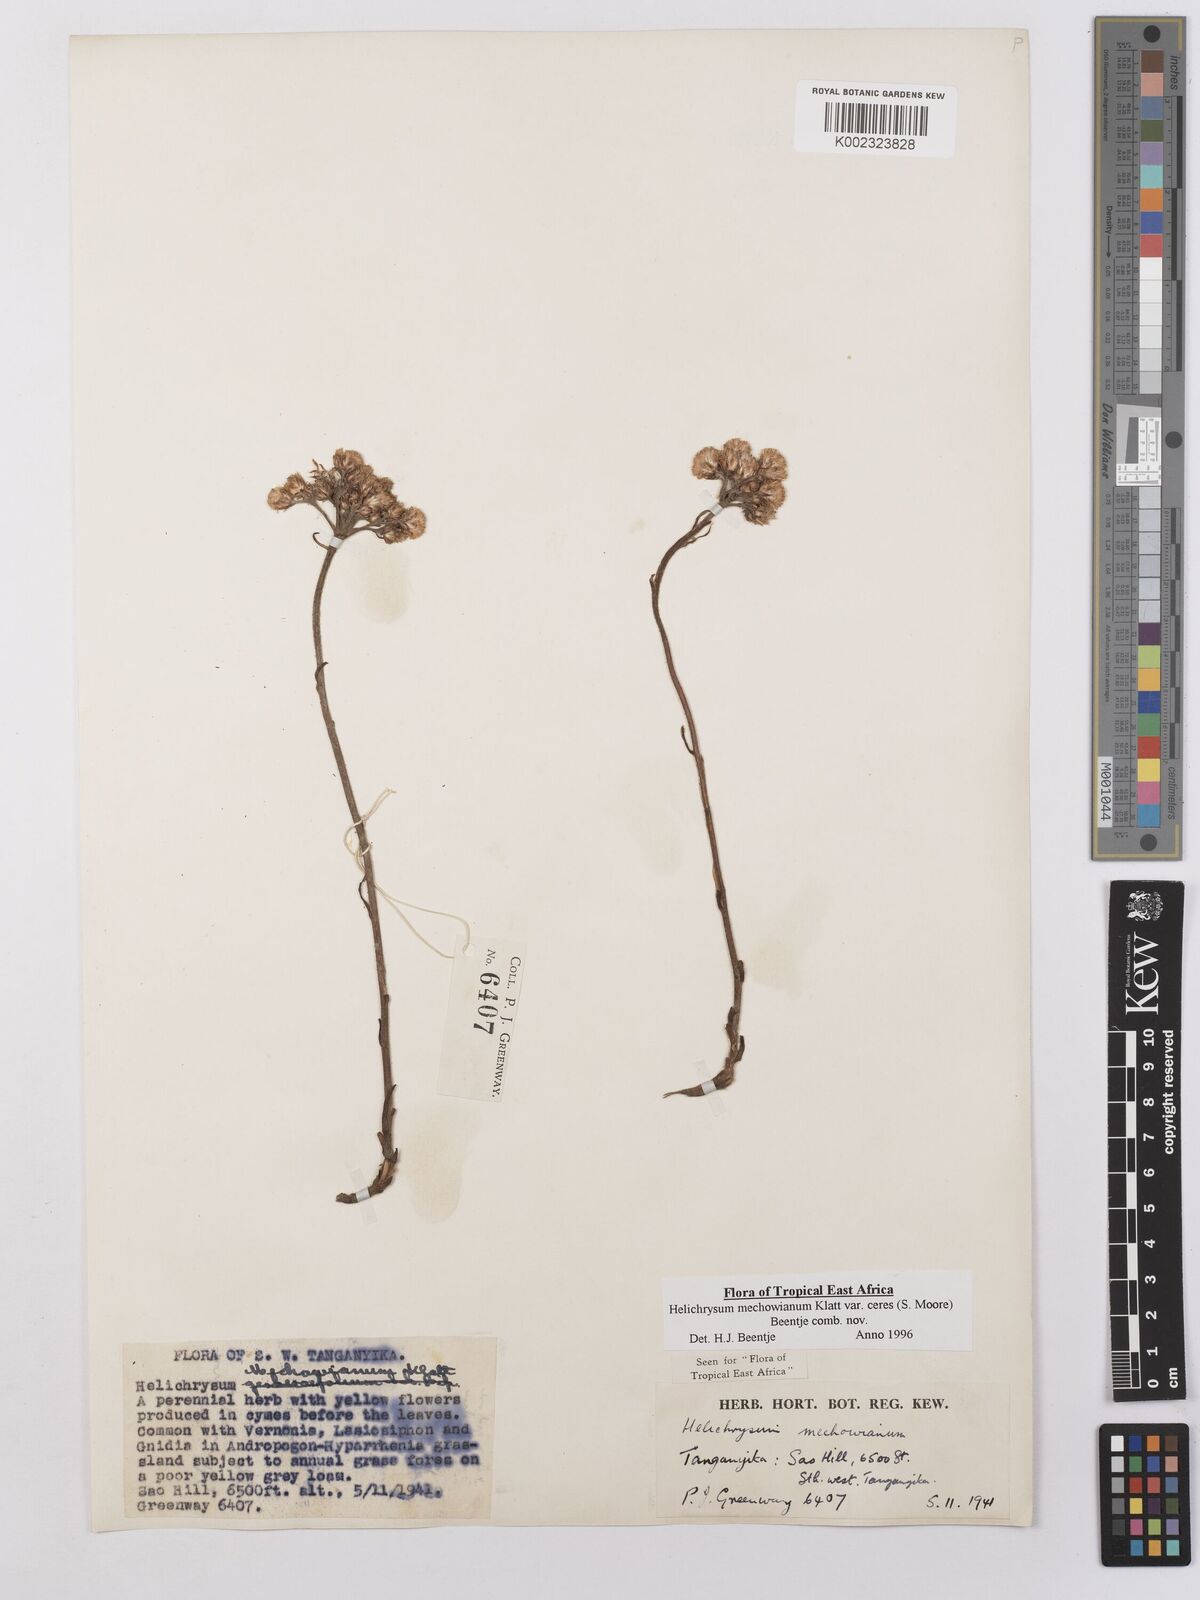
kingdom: Plantae
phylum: Tracheophyta
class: Magnoliopsida
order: Asterales
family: Asteraceae
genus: Helichrysum
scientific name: Helichrysum mechowianum
